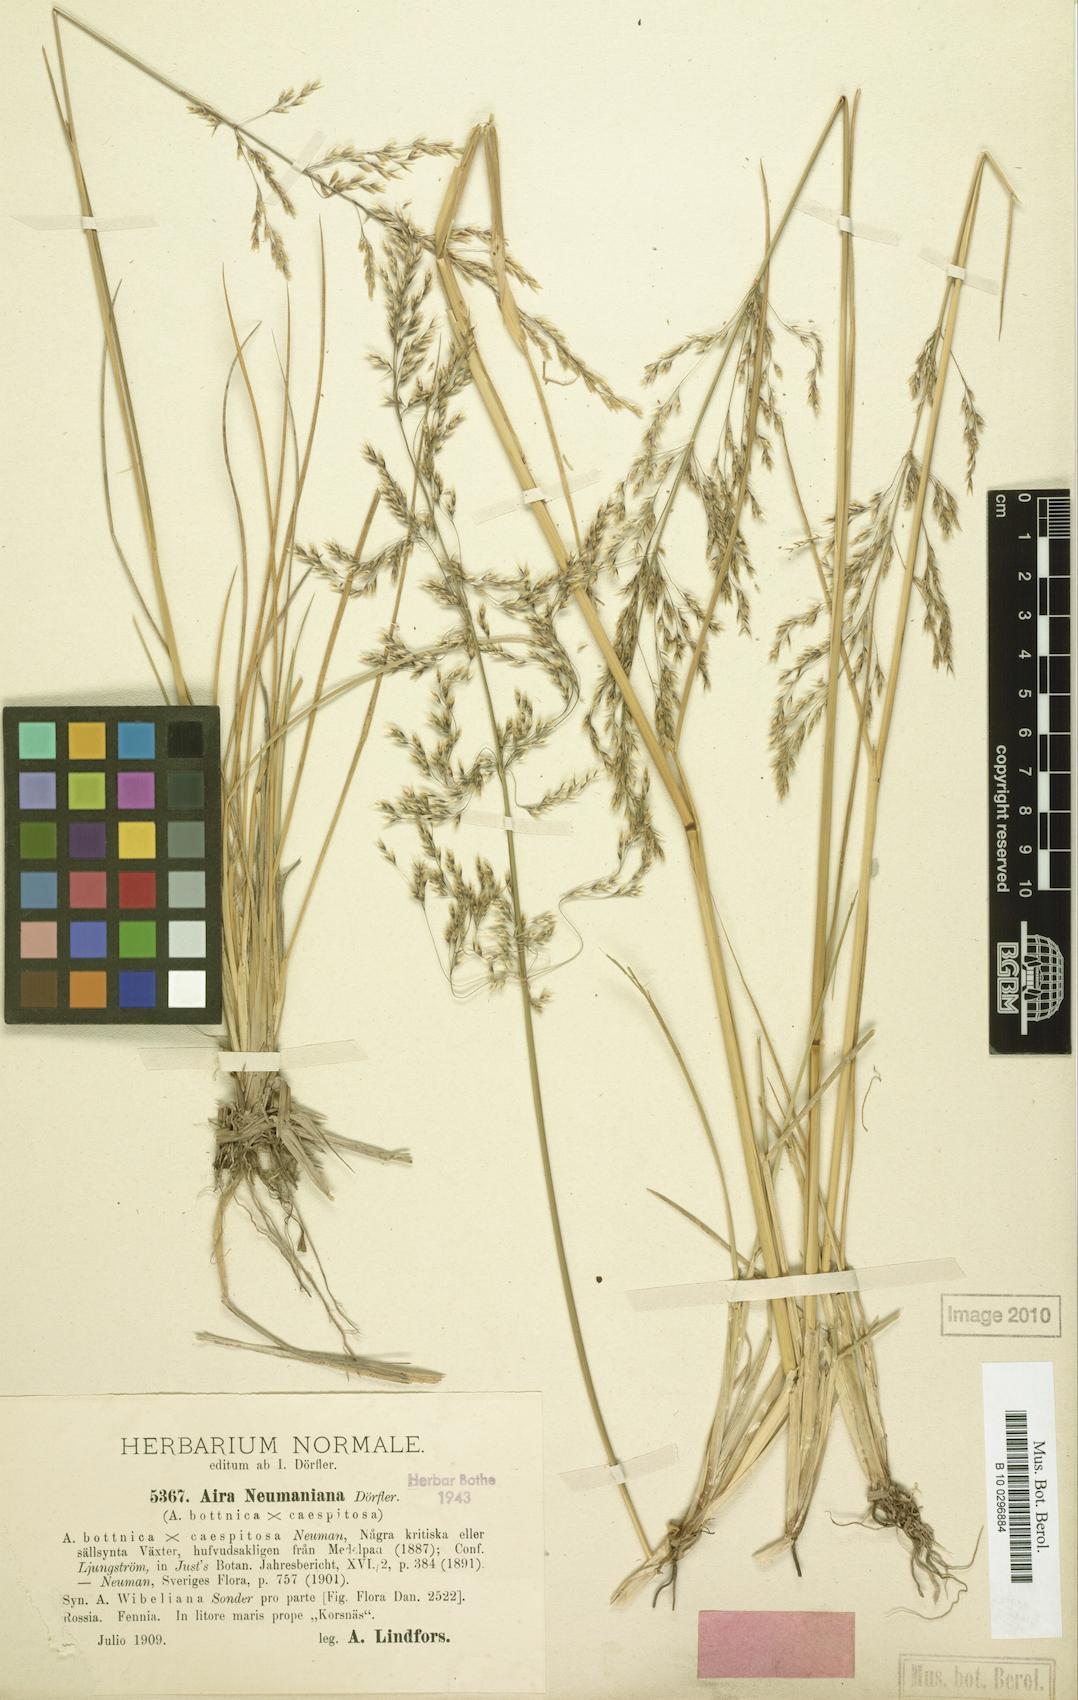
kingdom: Plantae
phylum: Tracheophyta
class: Liliopsida
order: Poales
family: Poaceae
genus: Deschampsia
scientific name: Deschampsia cespitosa
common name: Tufted hair-grass
